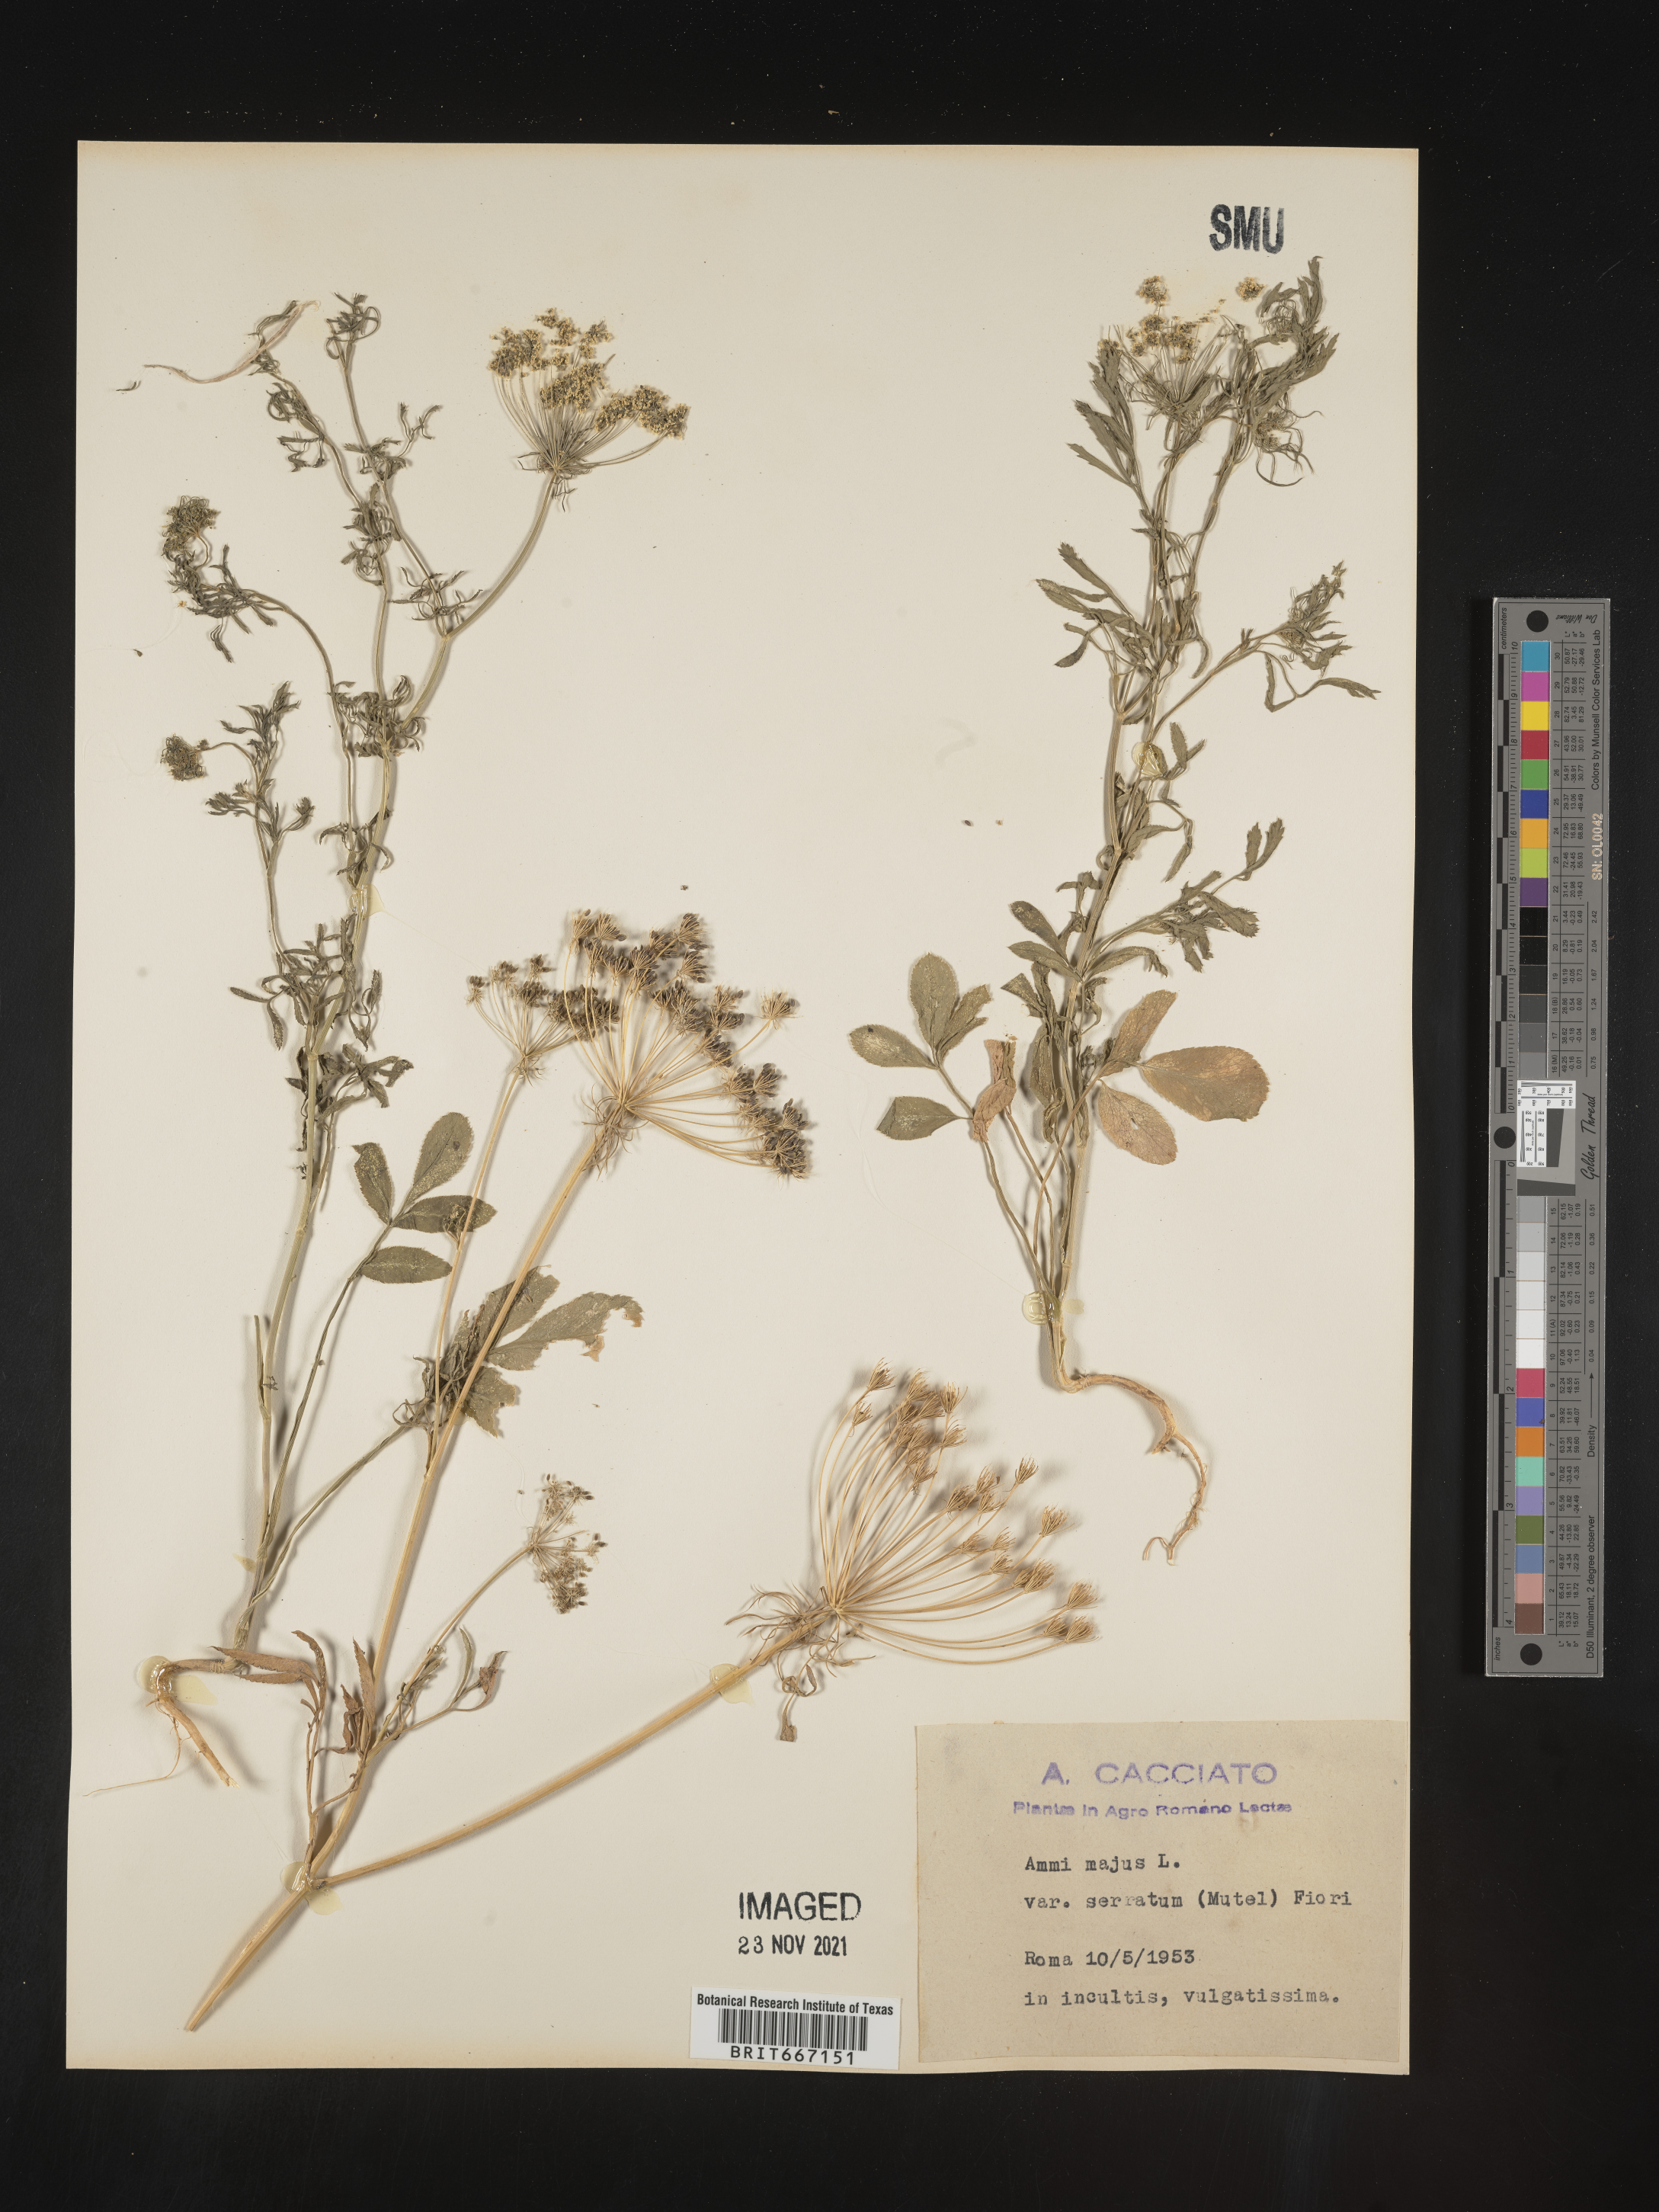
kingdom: Plantae
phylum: Tracheophyta
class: Magnoliopsida
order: Apiales
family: Apiaceae
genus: Ammi
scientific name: Ammi
